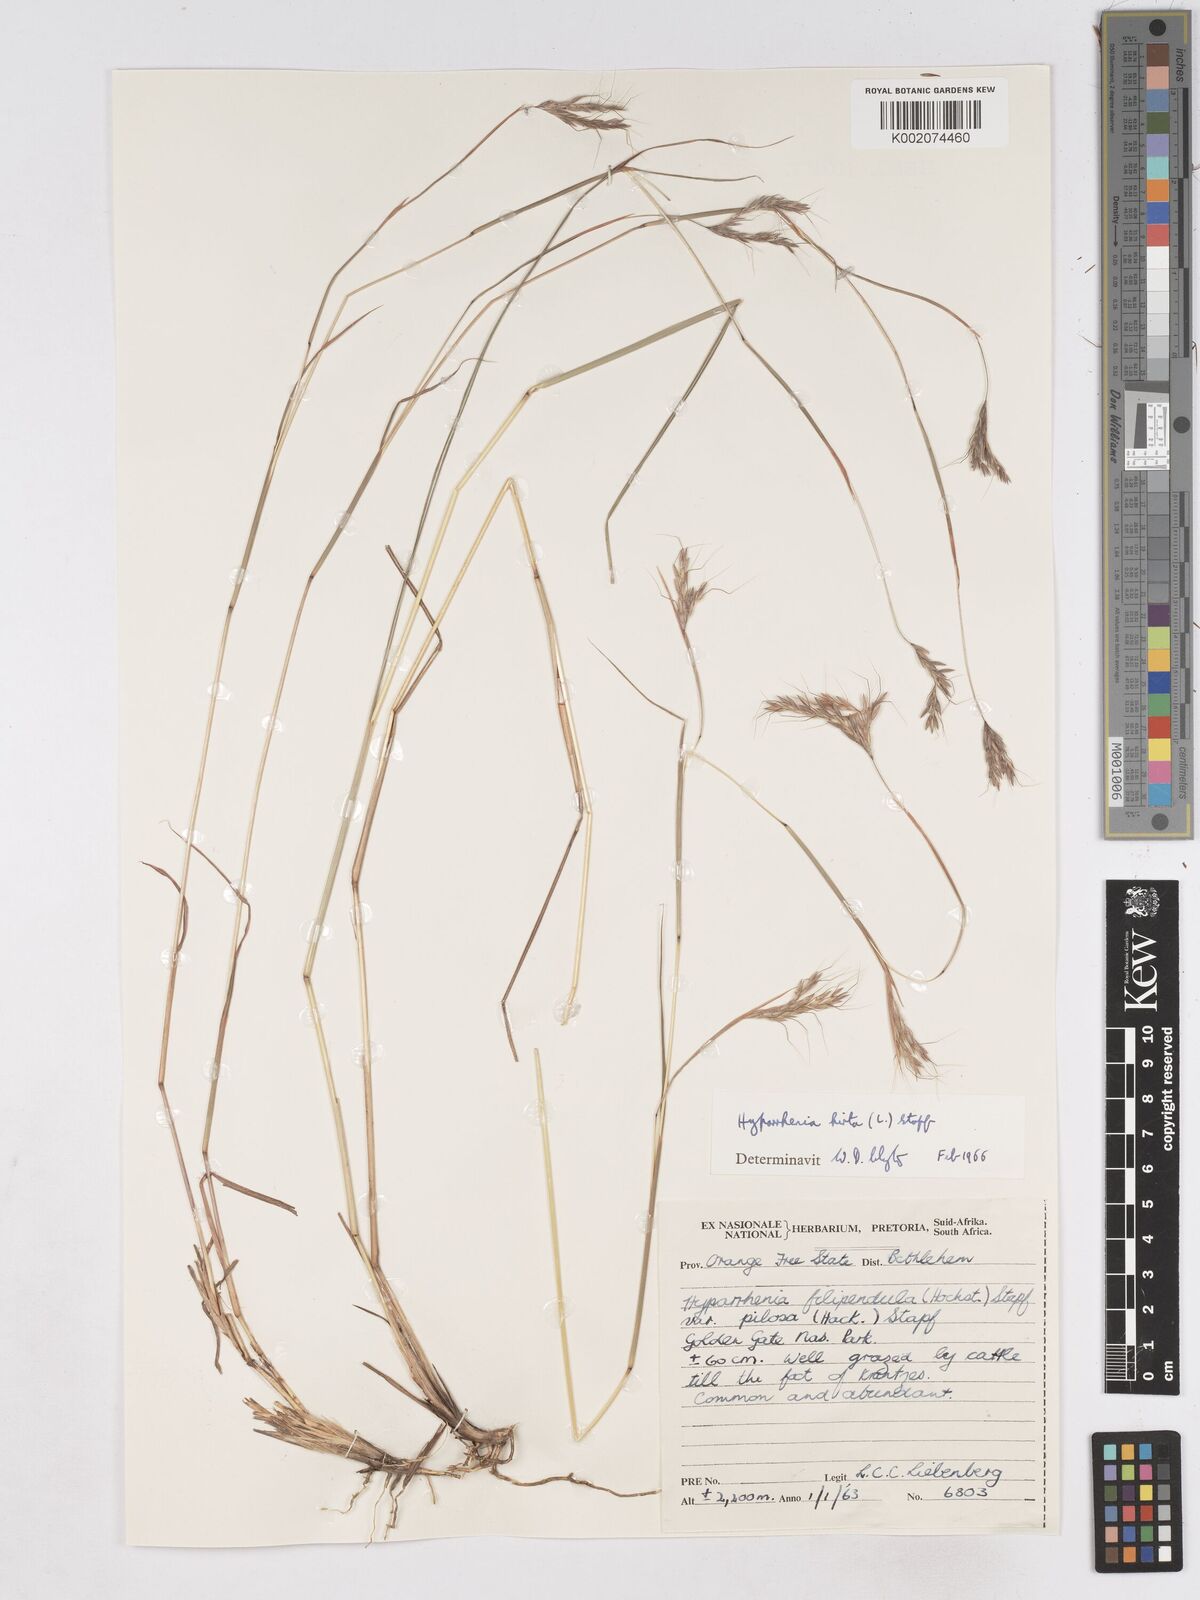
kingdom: Plantae
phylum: Tracheophyta
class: Liliopsida
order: Poales
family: Poaceae
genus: Hyparrhenia
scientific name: Hyparrhenia hirta
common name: Thatching grass
